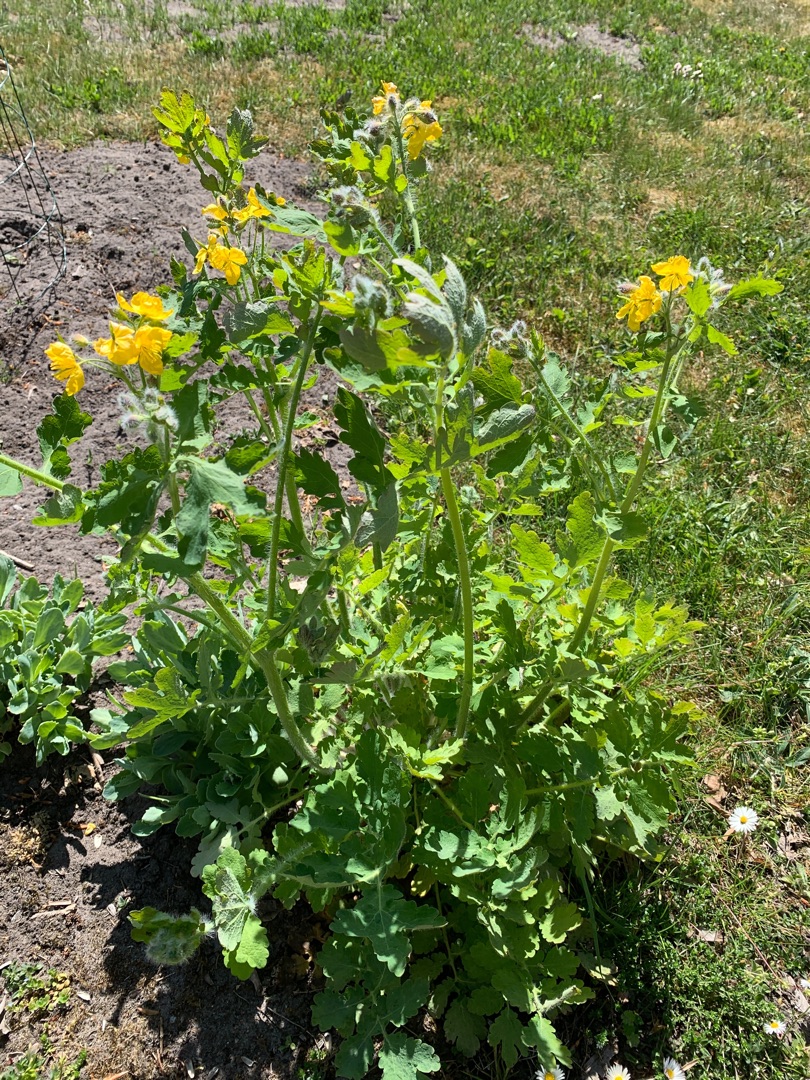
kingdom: Plantae
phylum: Tracheophyta
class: Magnoliopsida
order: Ranunculales
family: Papaveraceae
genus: Chelidonium
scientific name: Chelidonium majus
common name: Svaleurt
